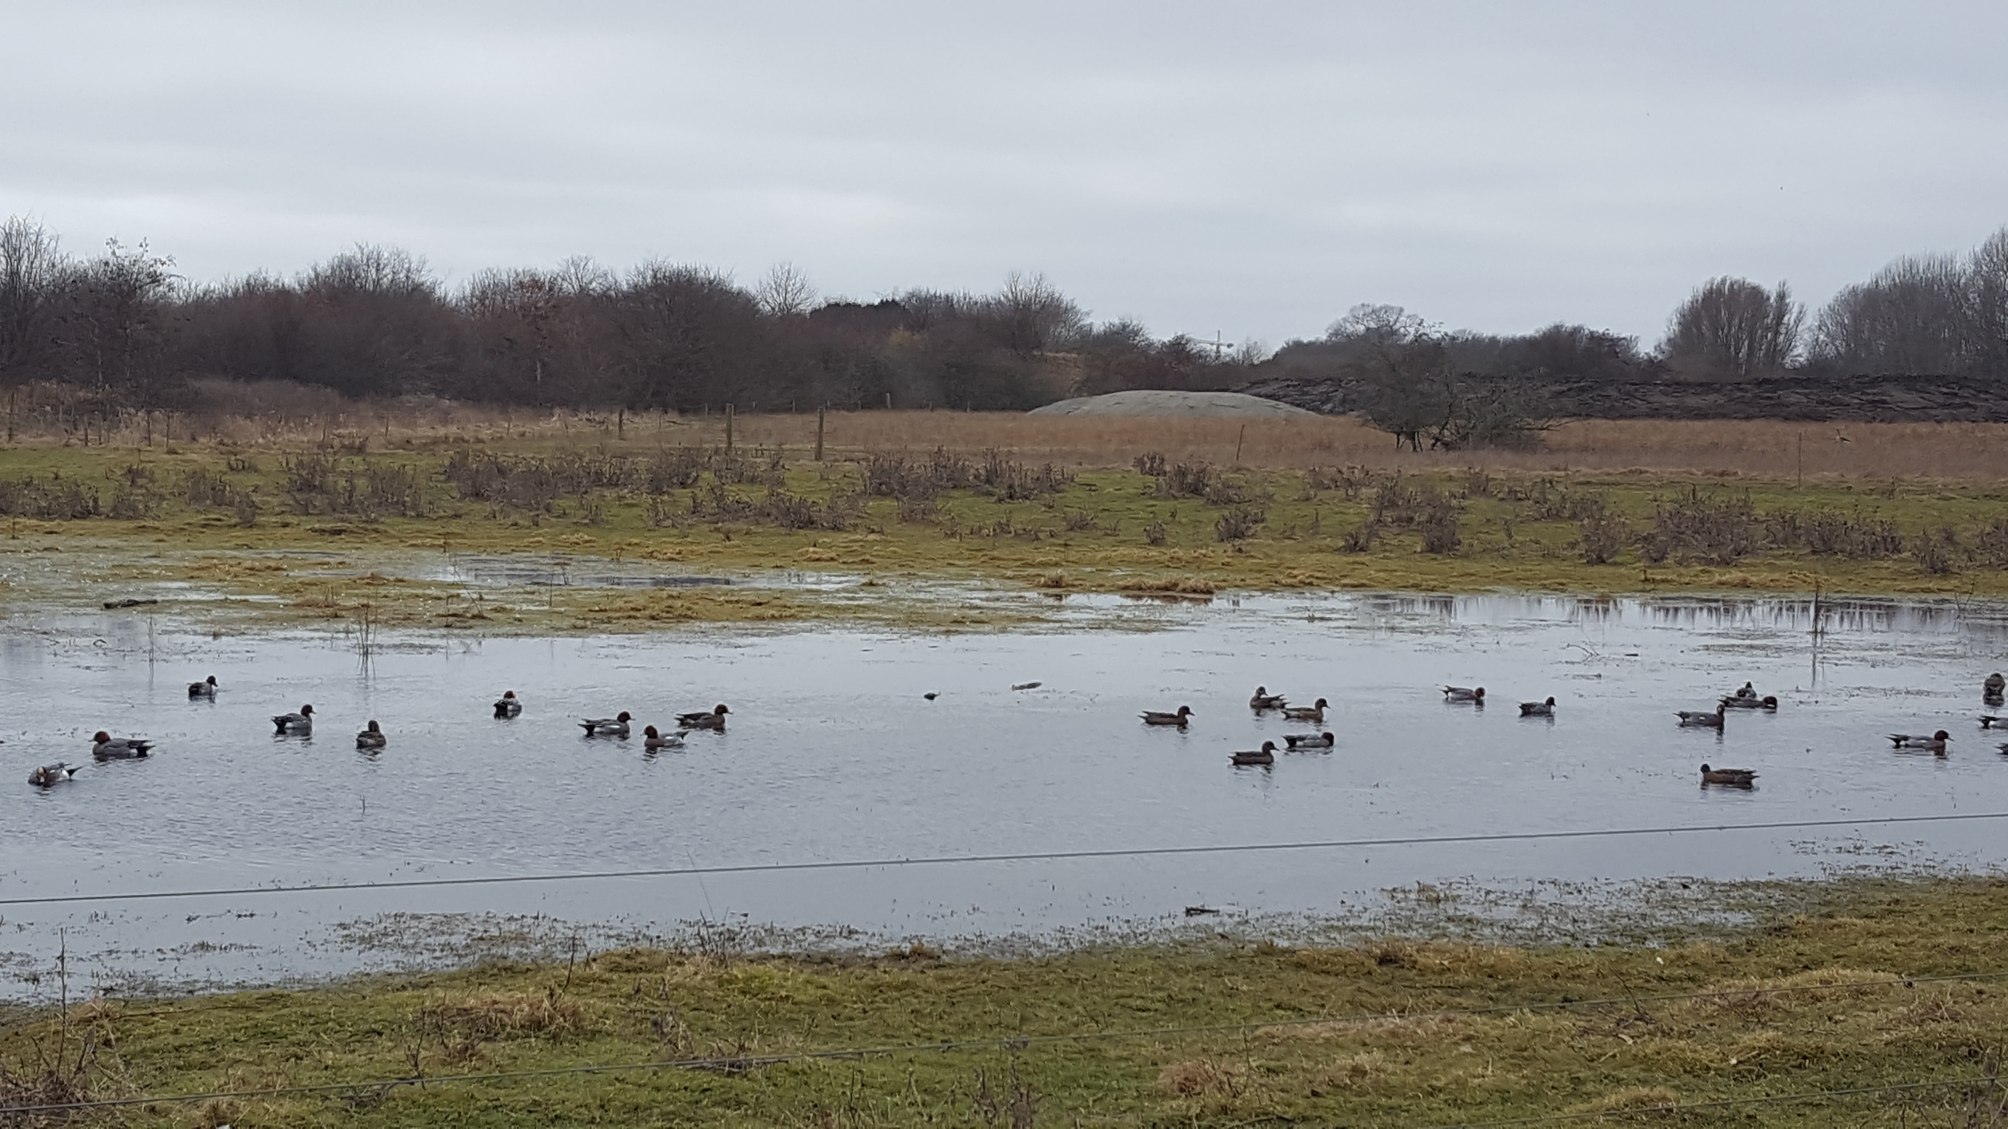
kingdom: Animalia
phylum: Chordata
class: Aves
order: Anseriformes
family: Anatidae
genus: Mareca
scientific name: Mareca penelope
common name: Pibeand
